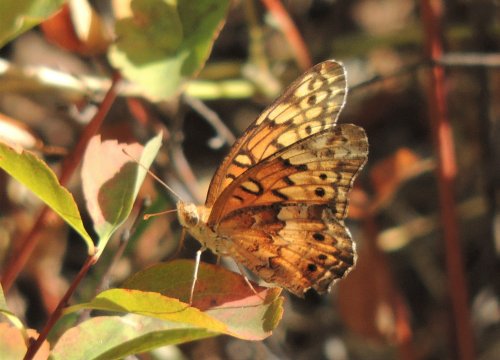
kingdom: Animalia
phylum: Arthropoda
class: Insecta
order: Lepidoptera
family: Nymphalidae
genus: Euptoieta
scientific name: Euptoieta claudia
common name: Variegated Fritillary
